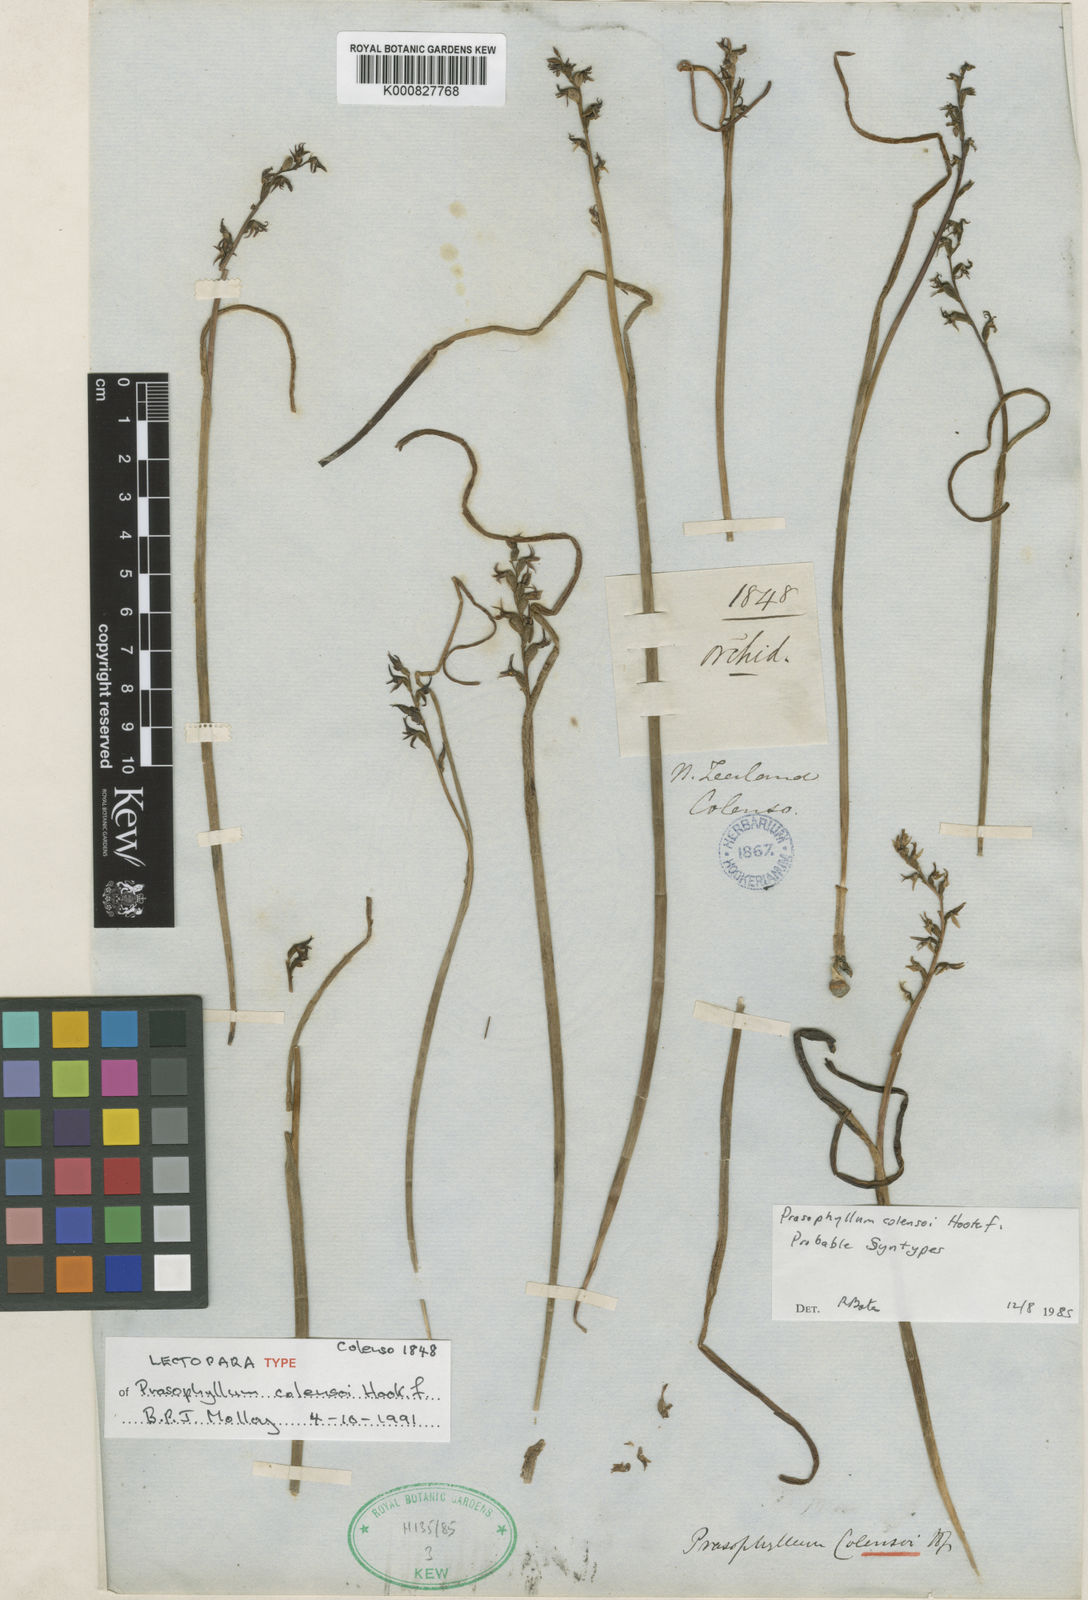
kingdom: Plantae
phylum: Tracheophyta
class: Liliopsida
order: Asparagales
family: Orchidaceae
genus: Prasophyllum
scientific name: Prasophyllum colensoi
